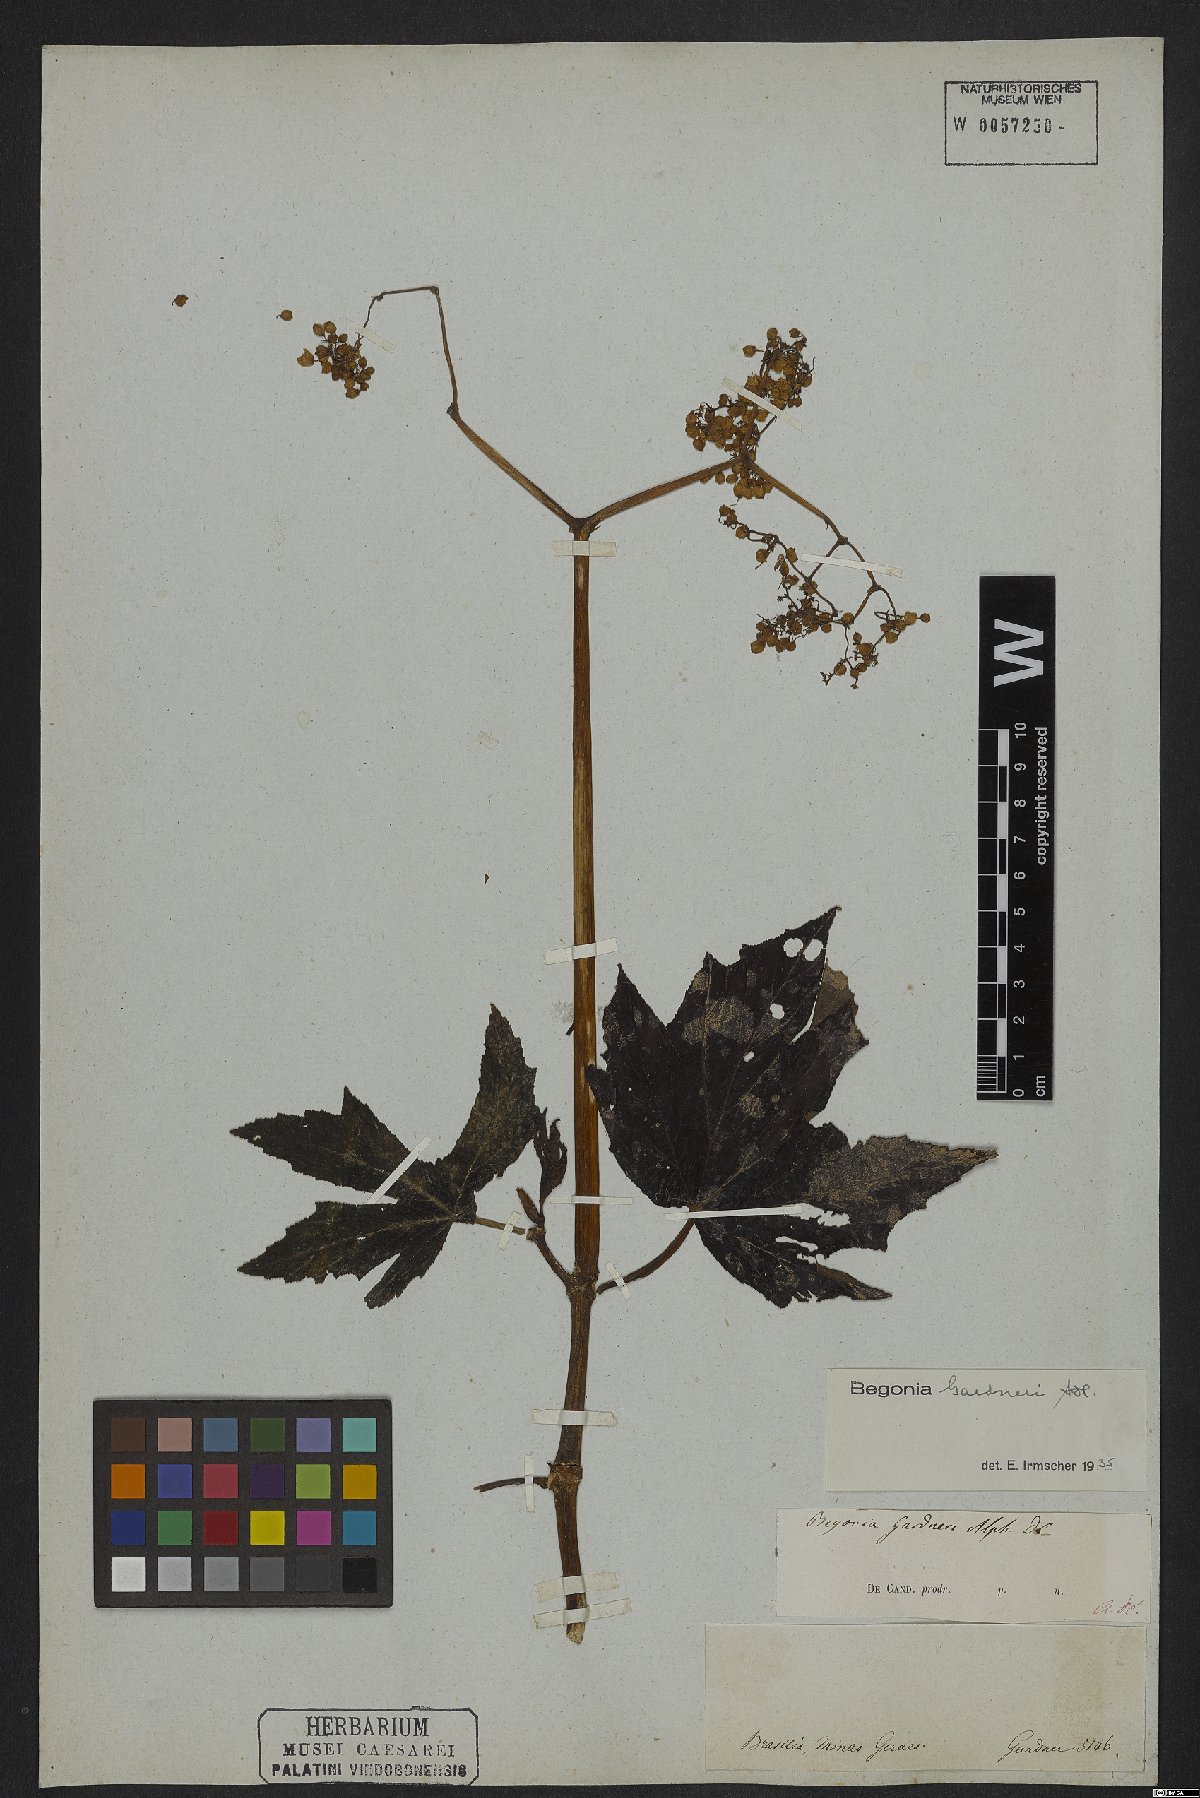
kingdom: Plantae
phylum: Tracheophyta
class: Magnoliopsida
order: Cucurbitales
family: Begoniaceae
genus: Begonia
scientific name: Begonia gardneri
